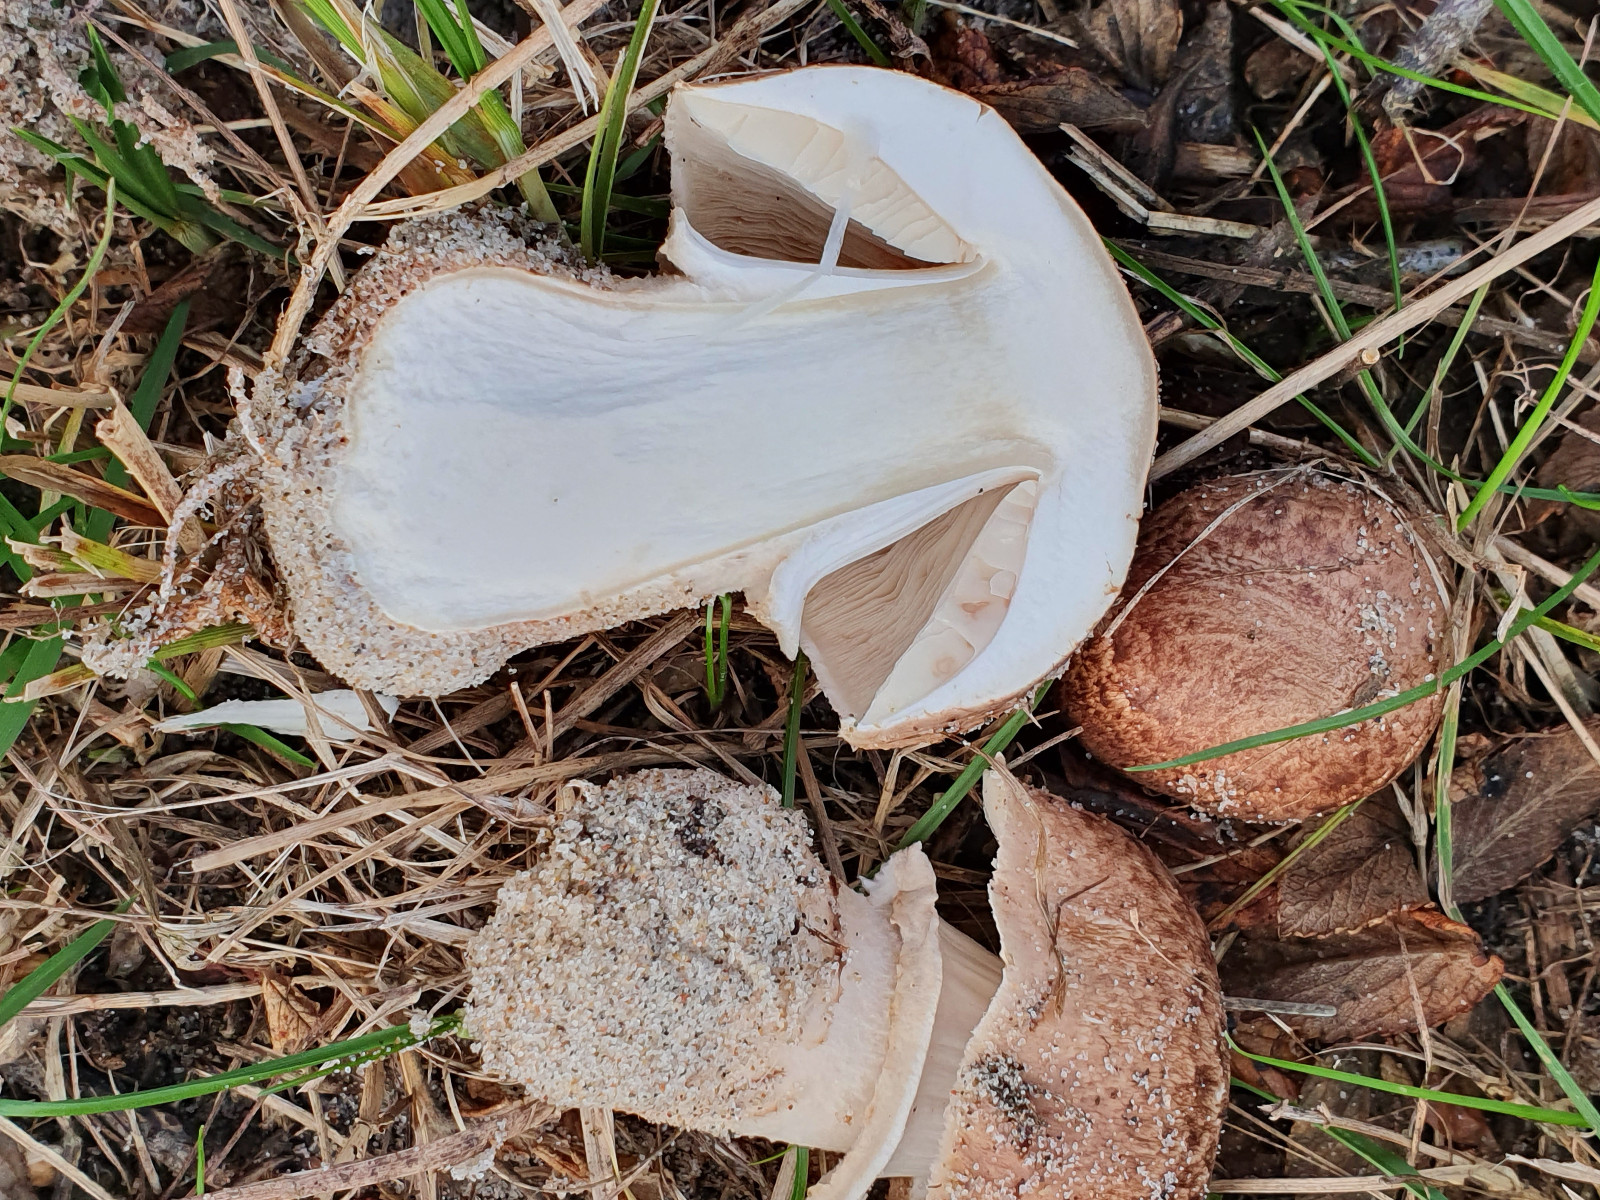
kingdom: Fungi
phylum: Basidiomycota
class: Agaricomycetes
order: Agaricales
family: Agaricaceae
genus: Agaricus
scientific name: Agaricus impudicus
